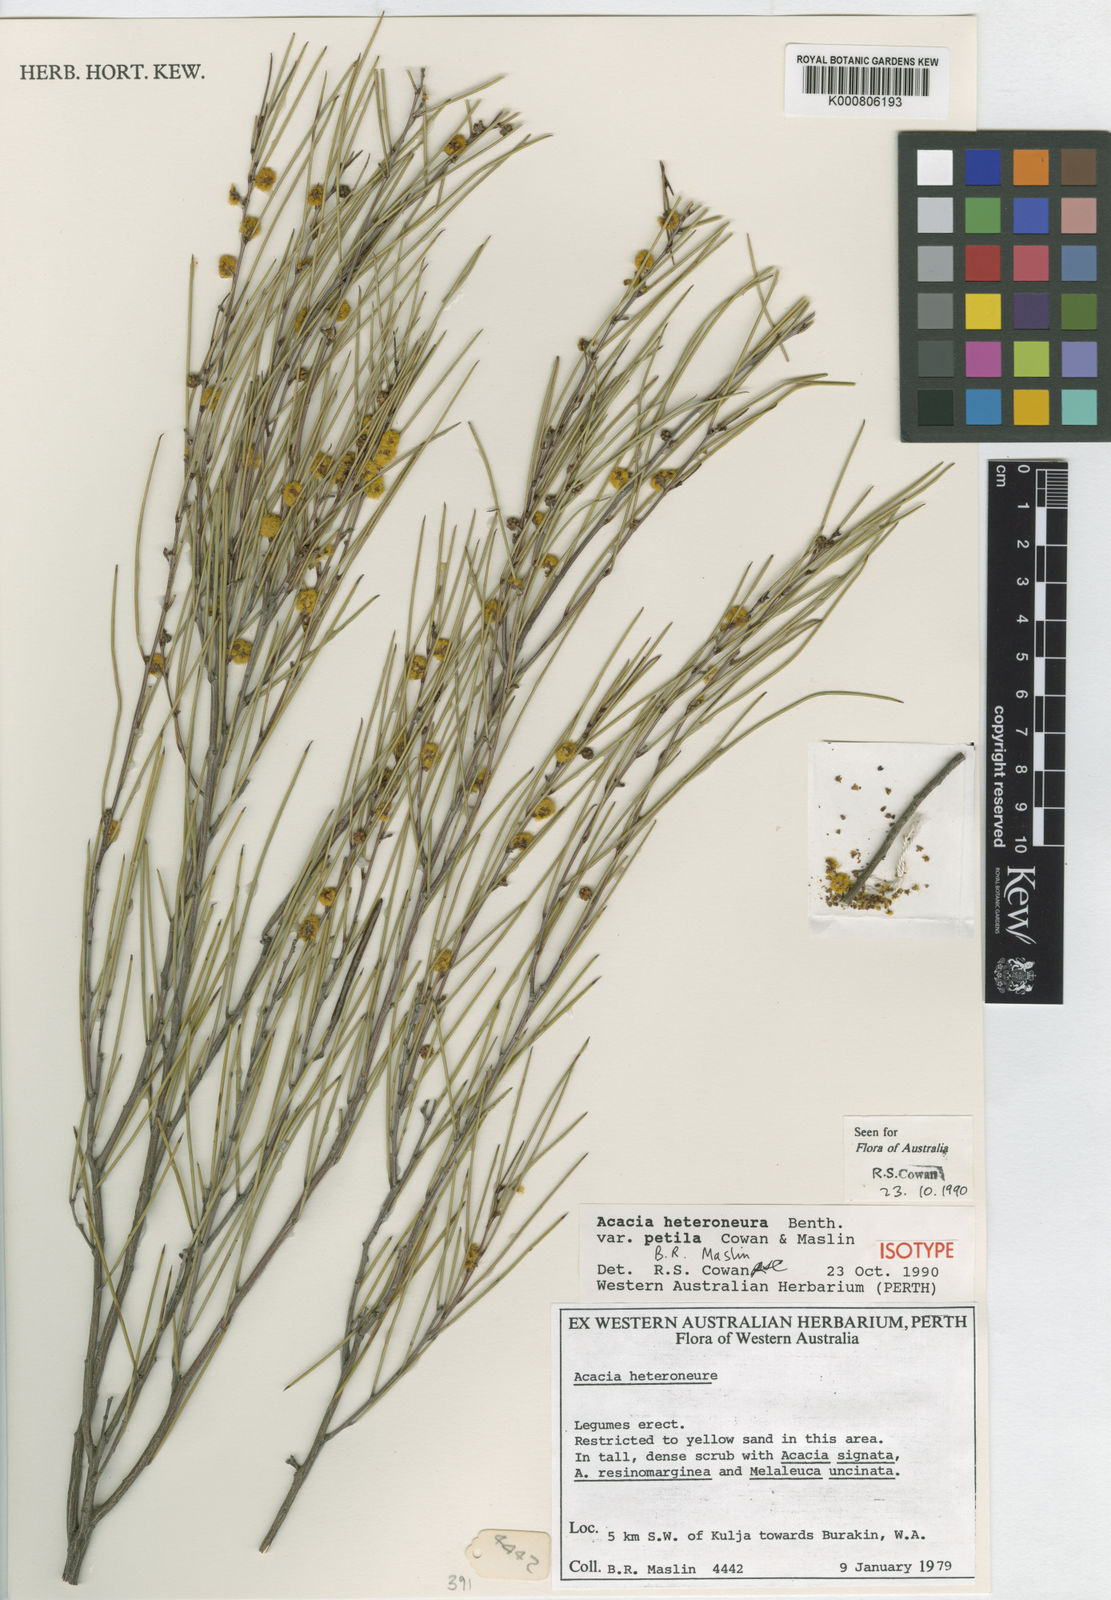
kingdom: Plantae
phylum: Tracheophyta
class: Magnoliopsida
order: Fabales
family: Fabaceae
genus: Acacia
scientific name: Acacia heteroneura
